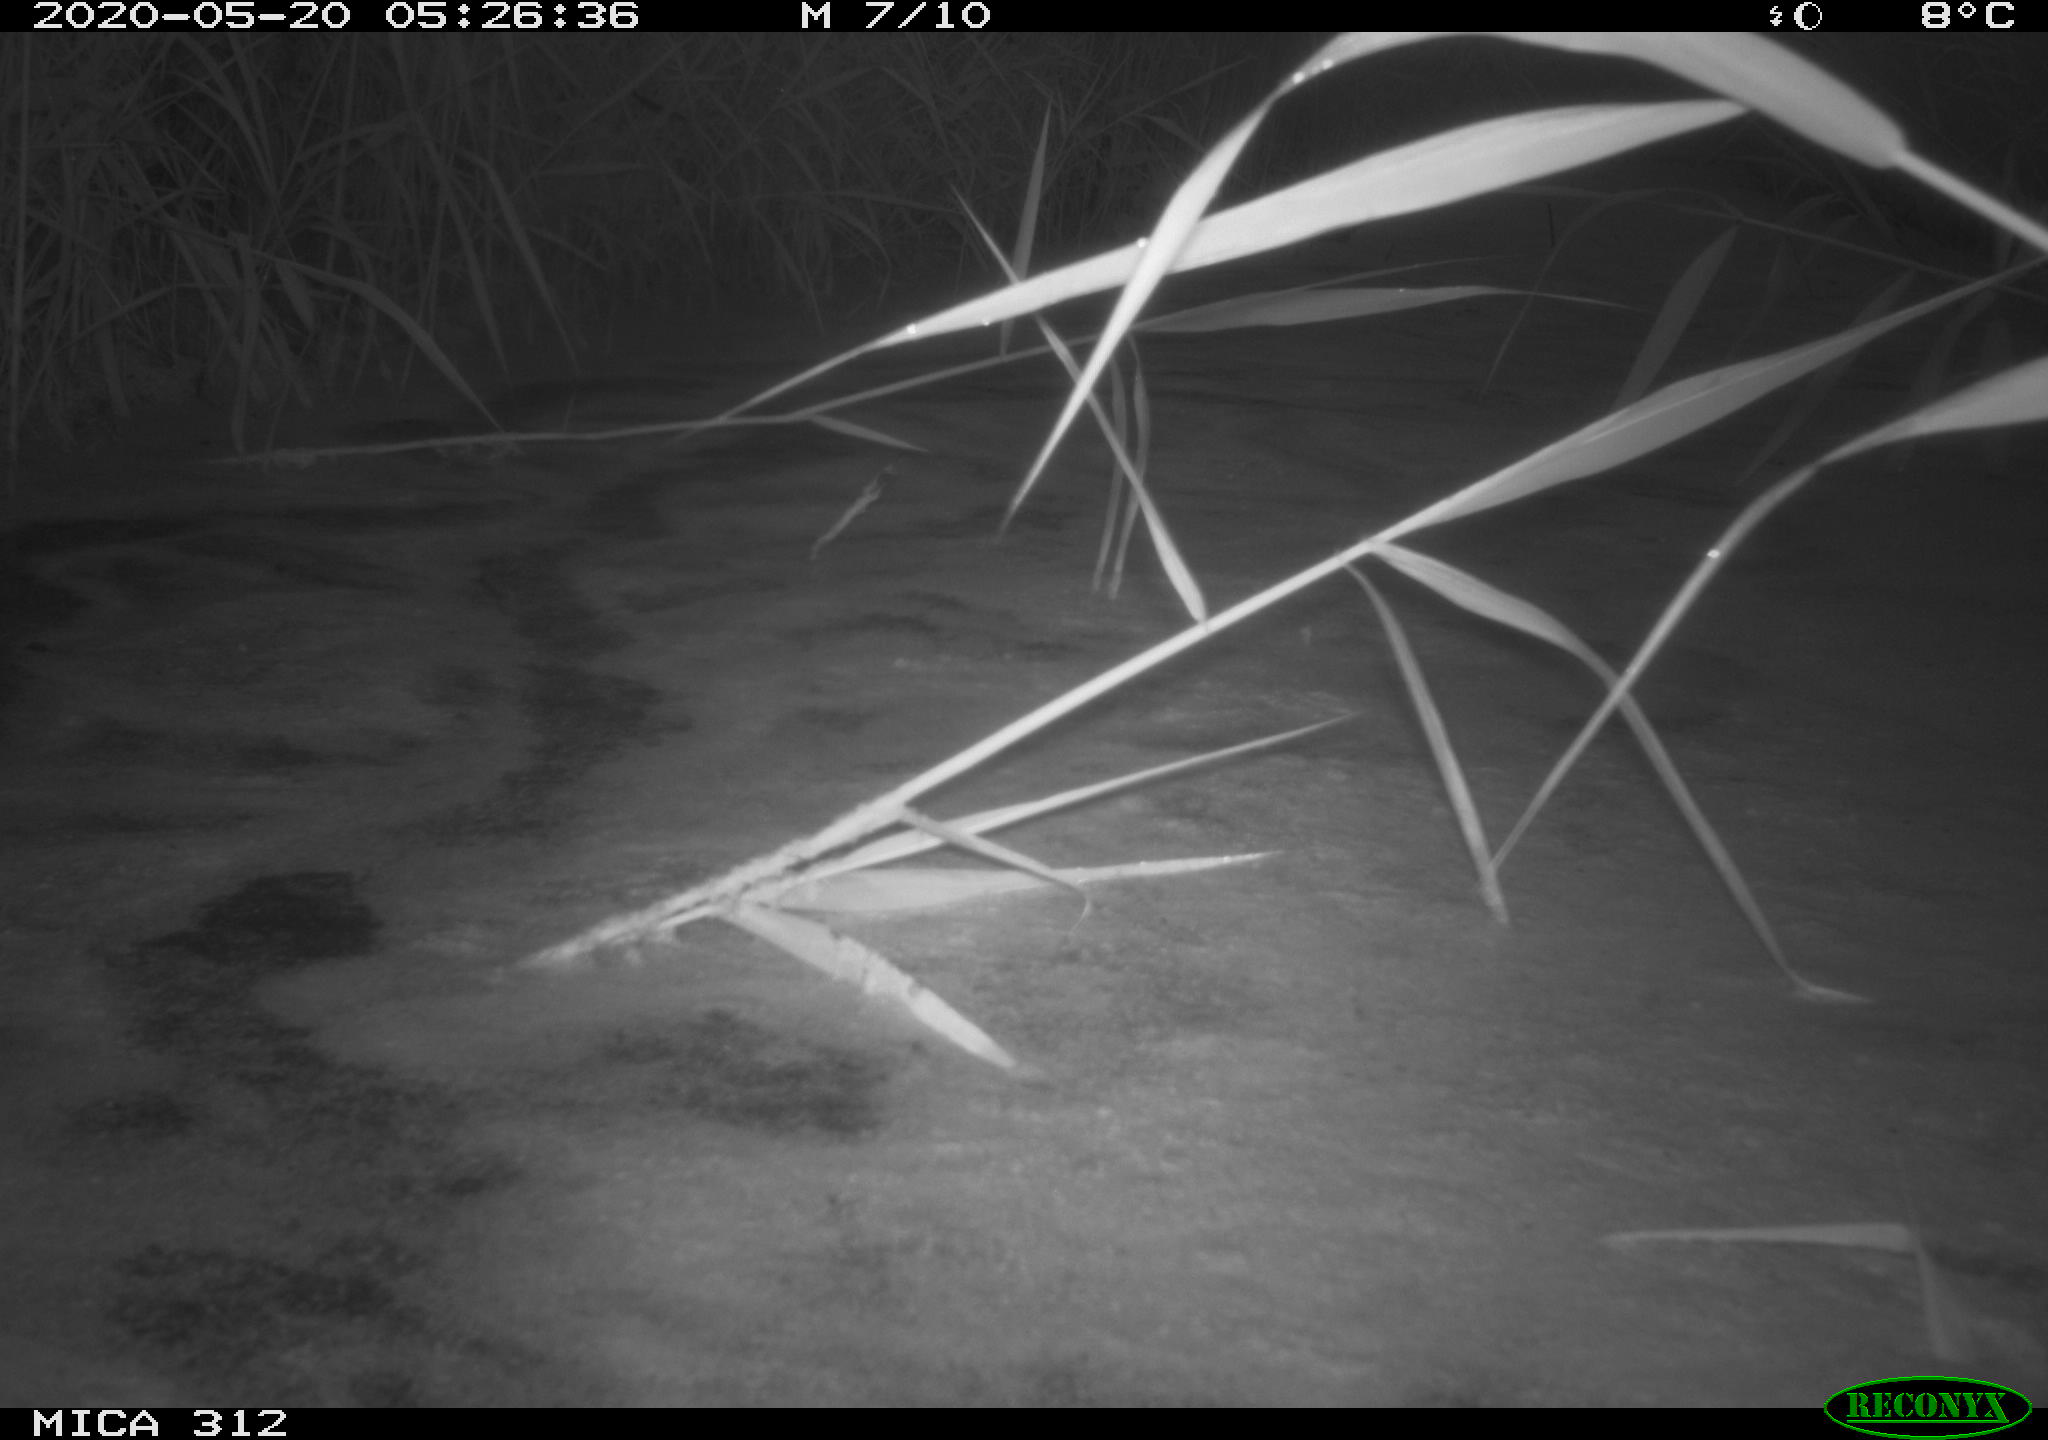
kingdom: Animalia
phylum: Chordata
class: Aves
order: Anseriformes
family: Anatidae
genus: Anas
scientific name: Anas platyrhynchos
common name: Mallard
